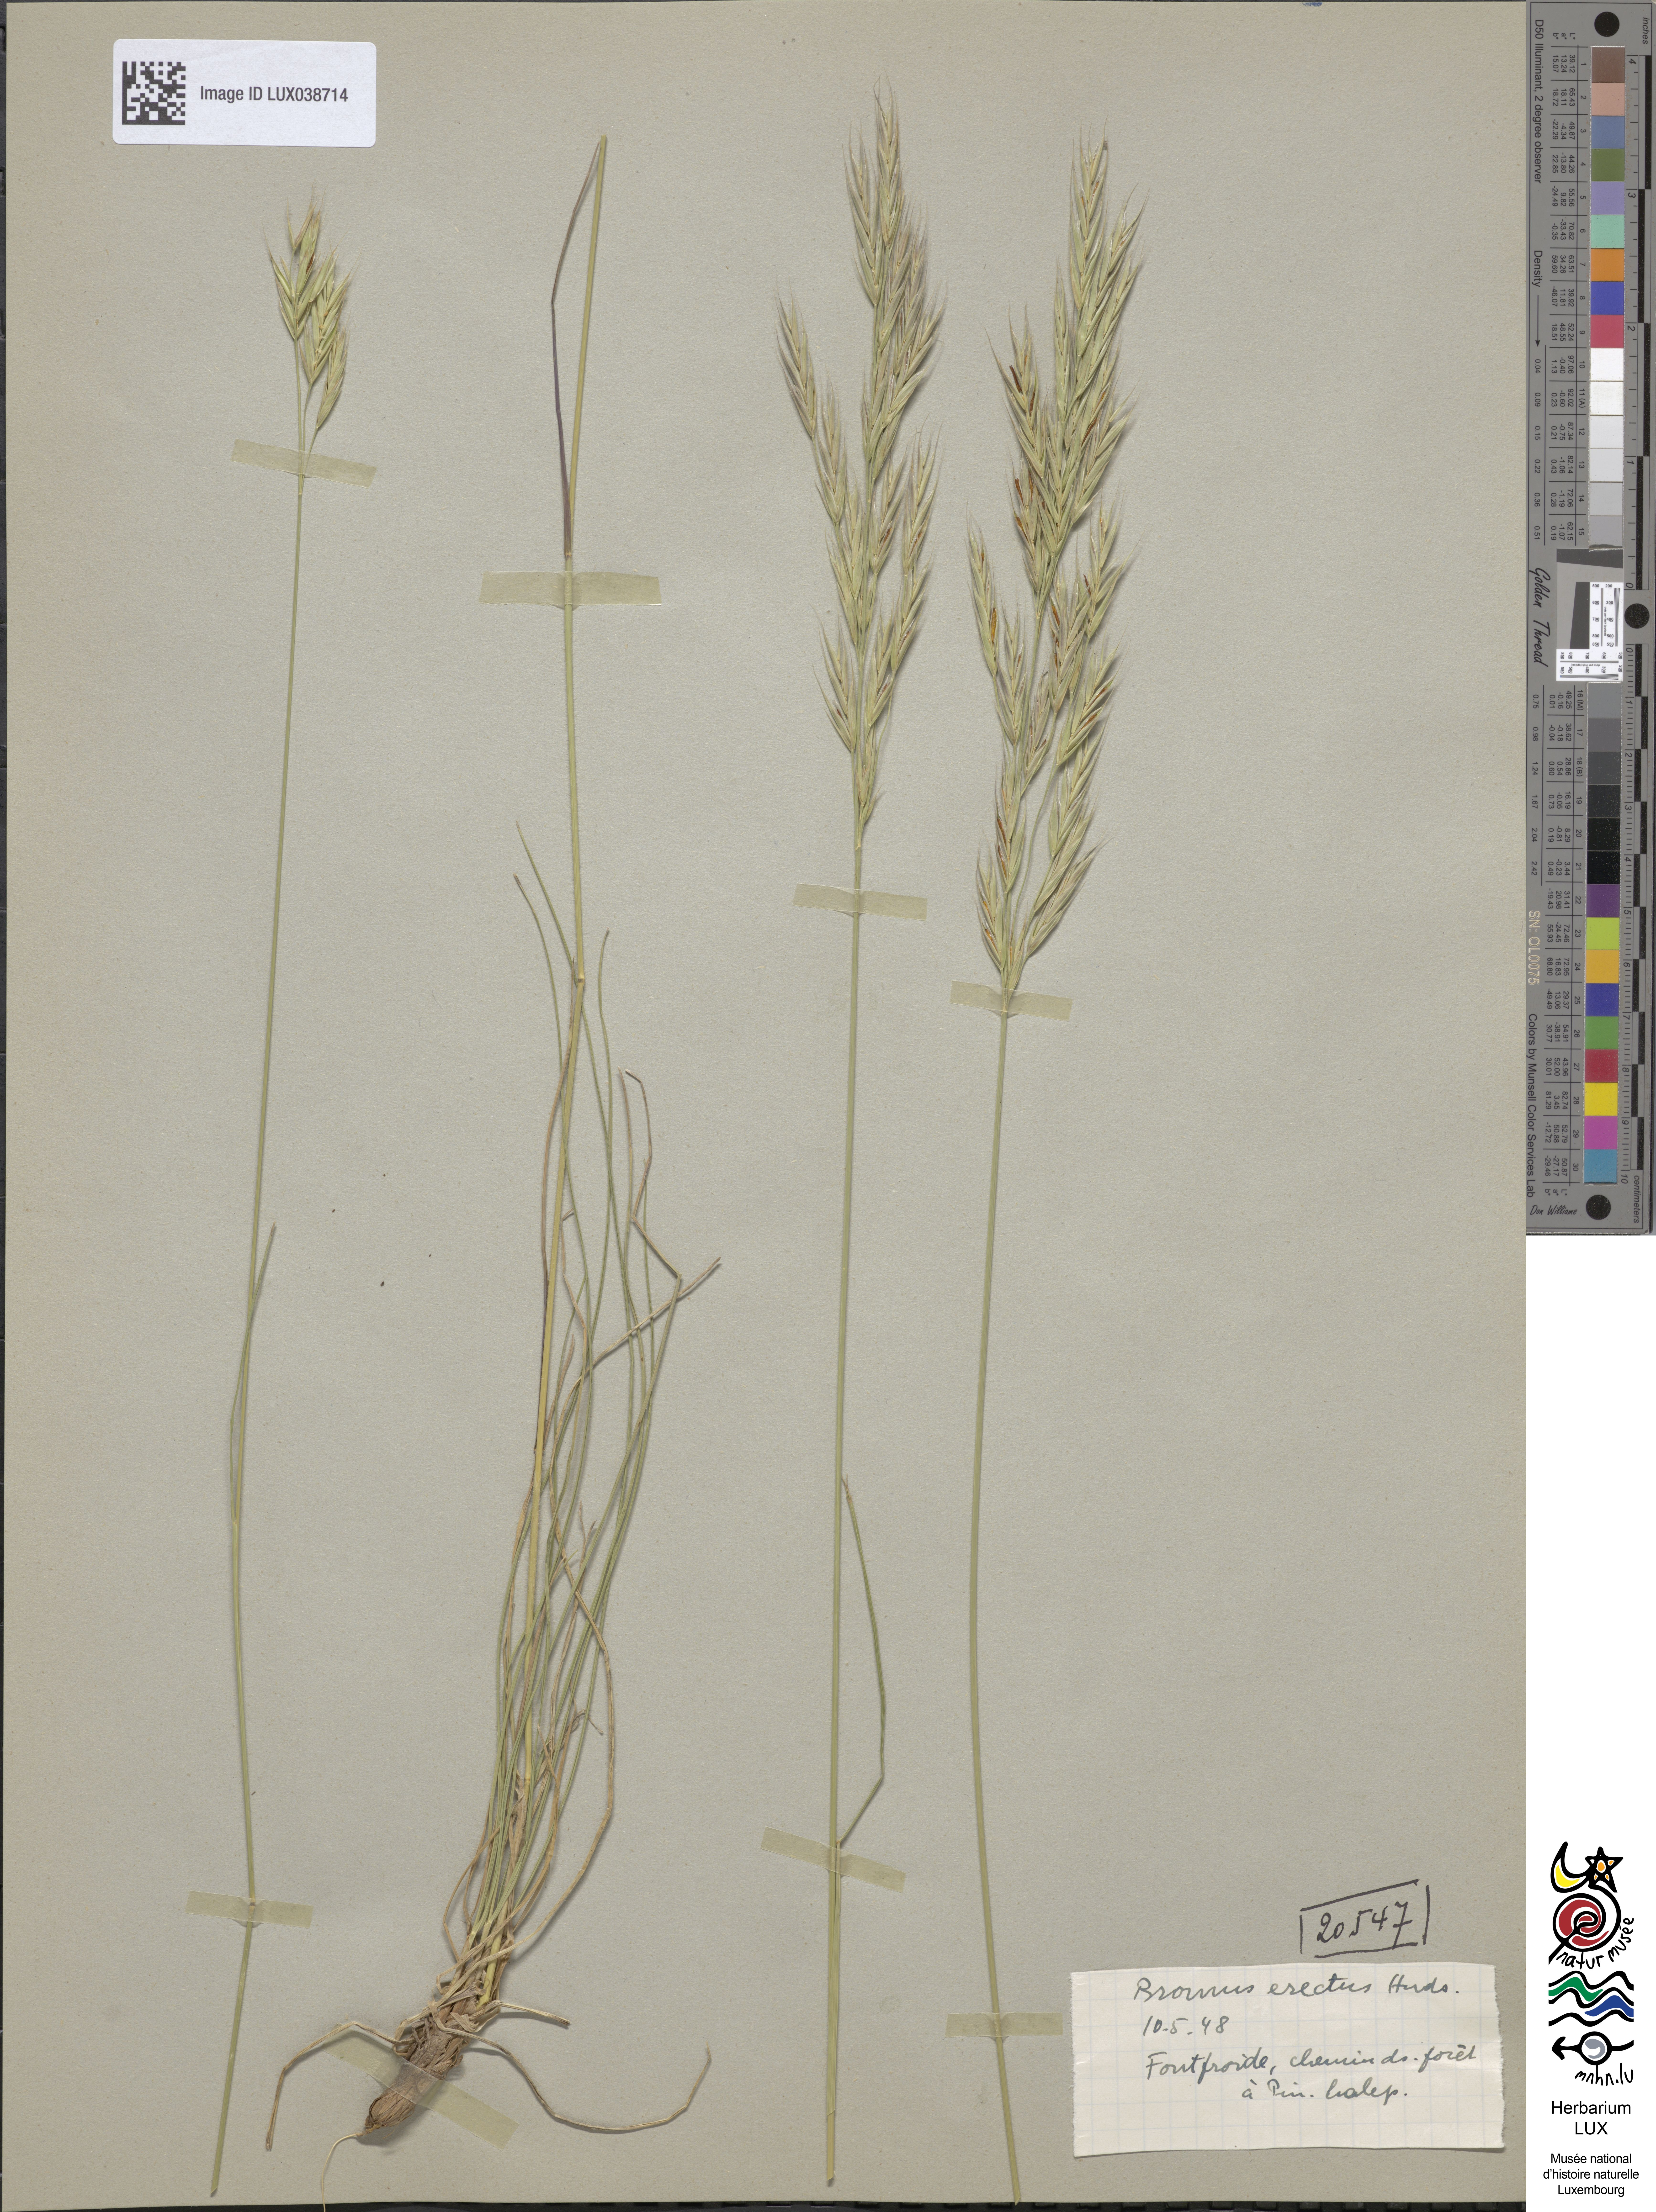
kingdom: Plantae
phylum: Tracheophyta
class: Liliopsida
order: Poales
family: Poaceae
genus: Bromus
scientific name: Bromus erectus
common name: Erect brome
